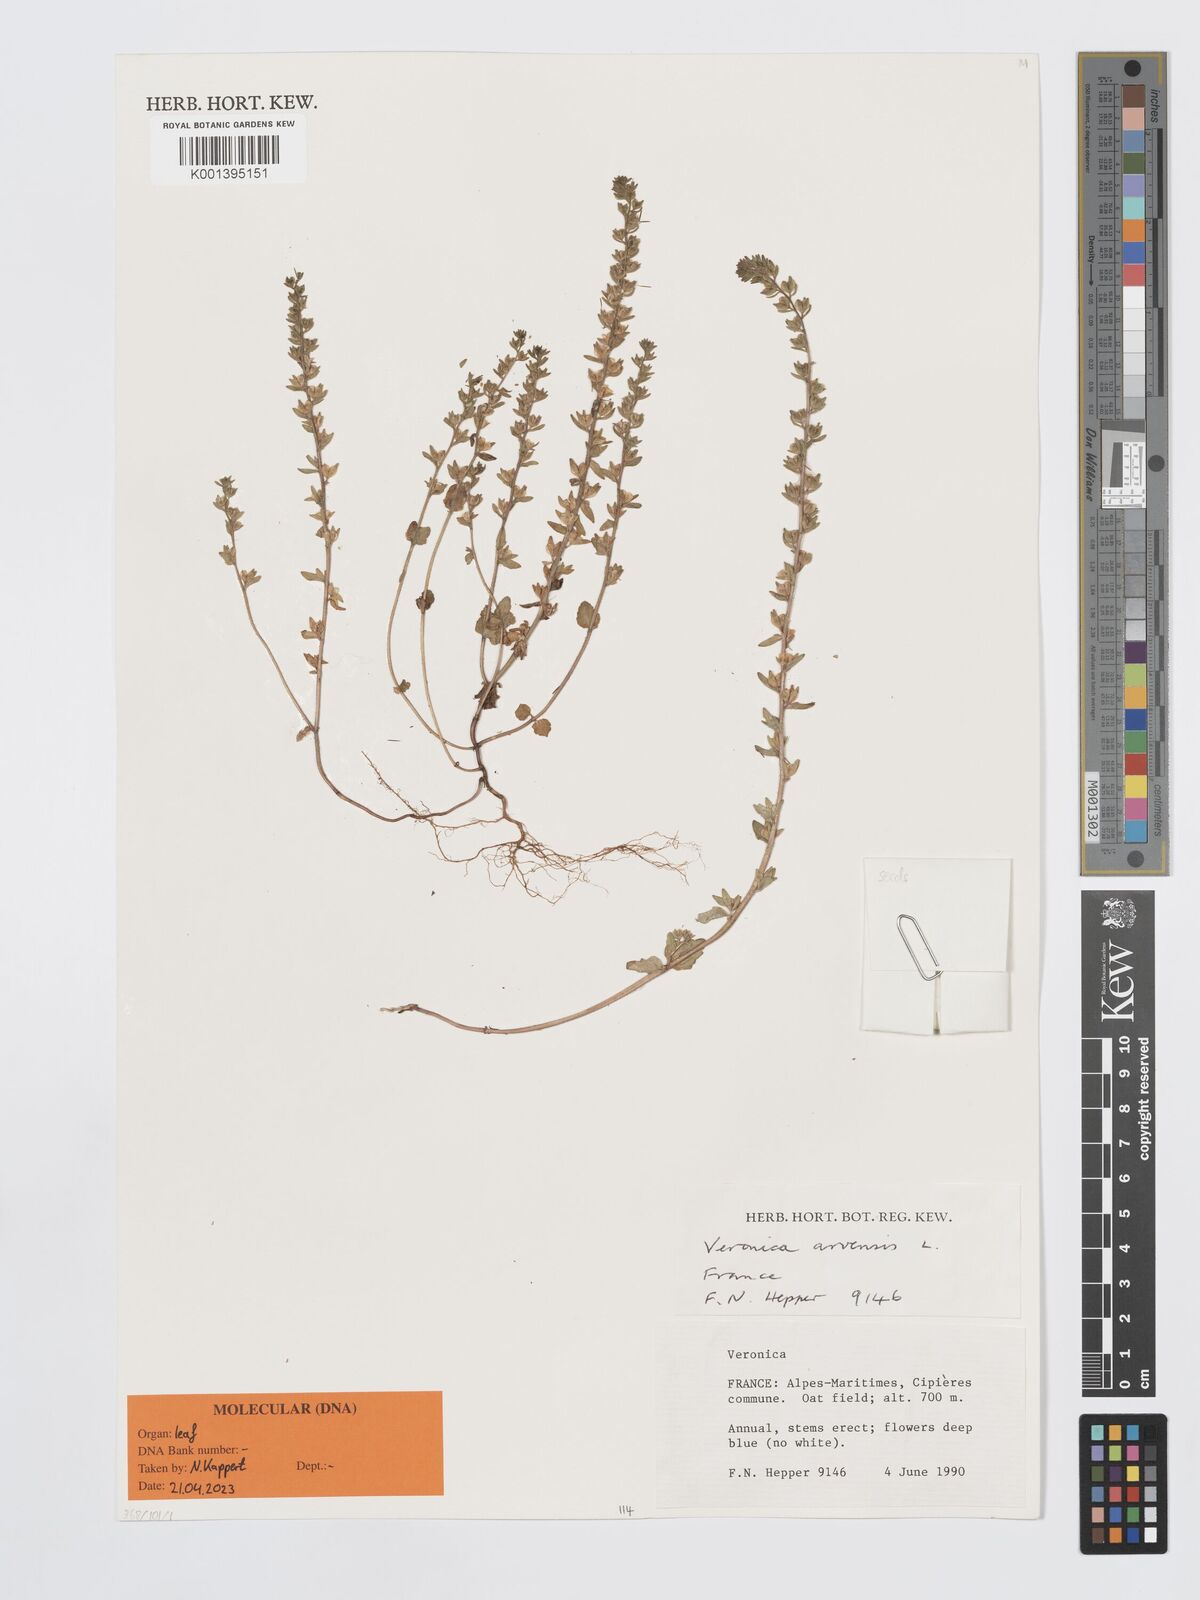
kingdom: Plantae
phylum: Tracheophyta
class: Magnoliopsida
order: Lamiales
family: Plantaginaceae
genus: Veronica
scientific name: Veronica arvensis
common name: Corn speedwell
